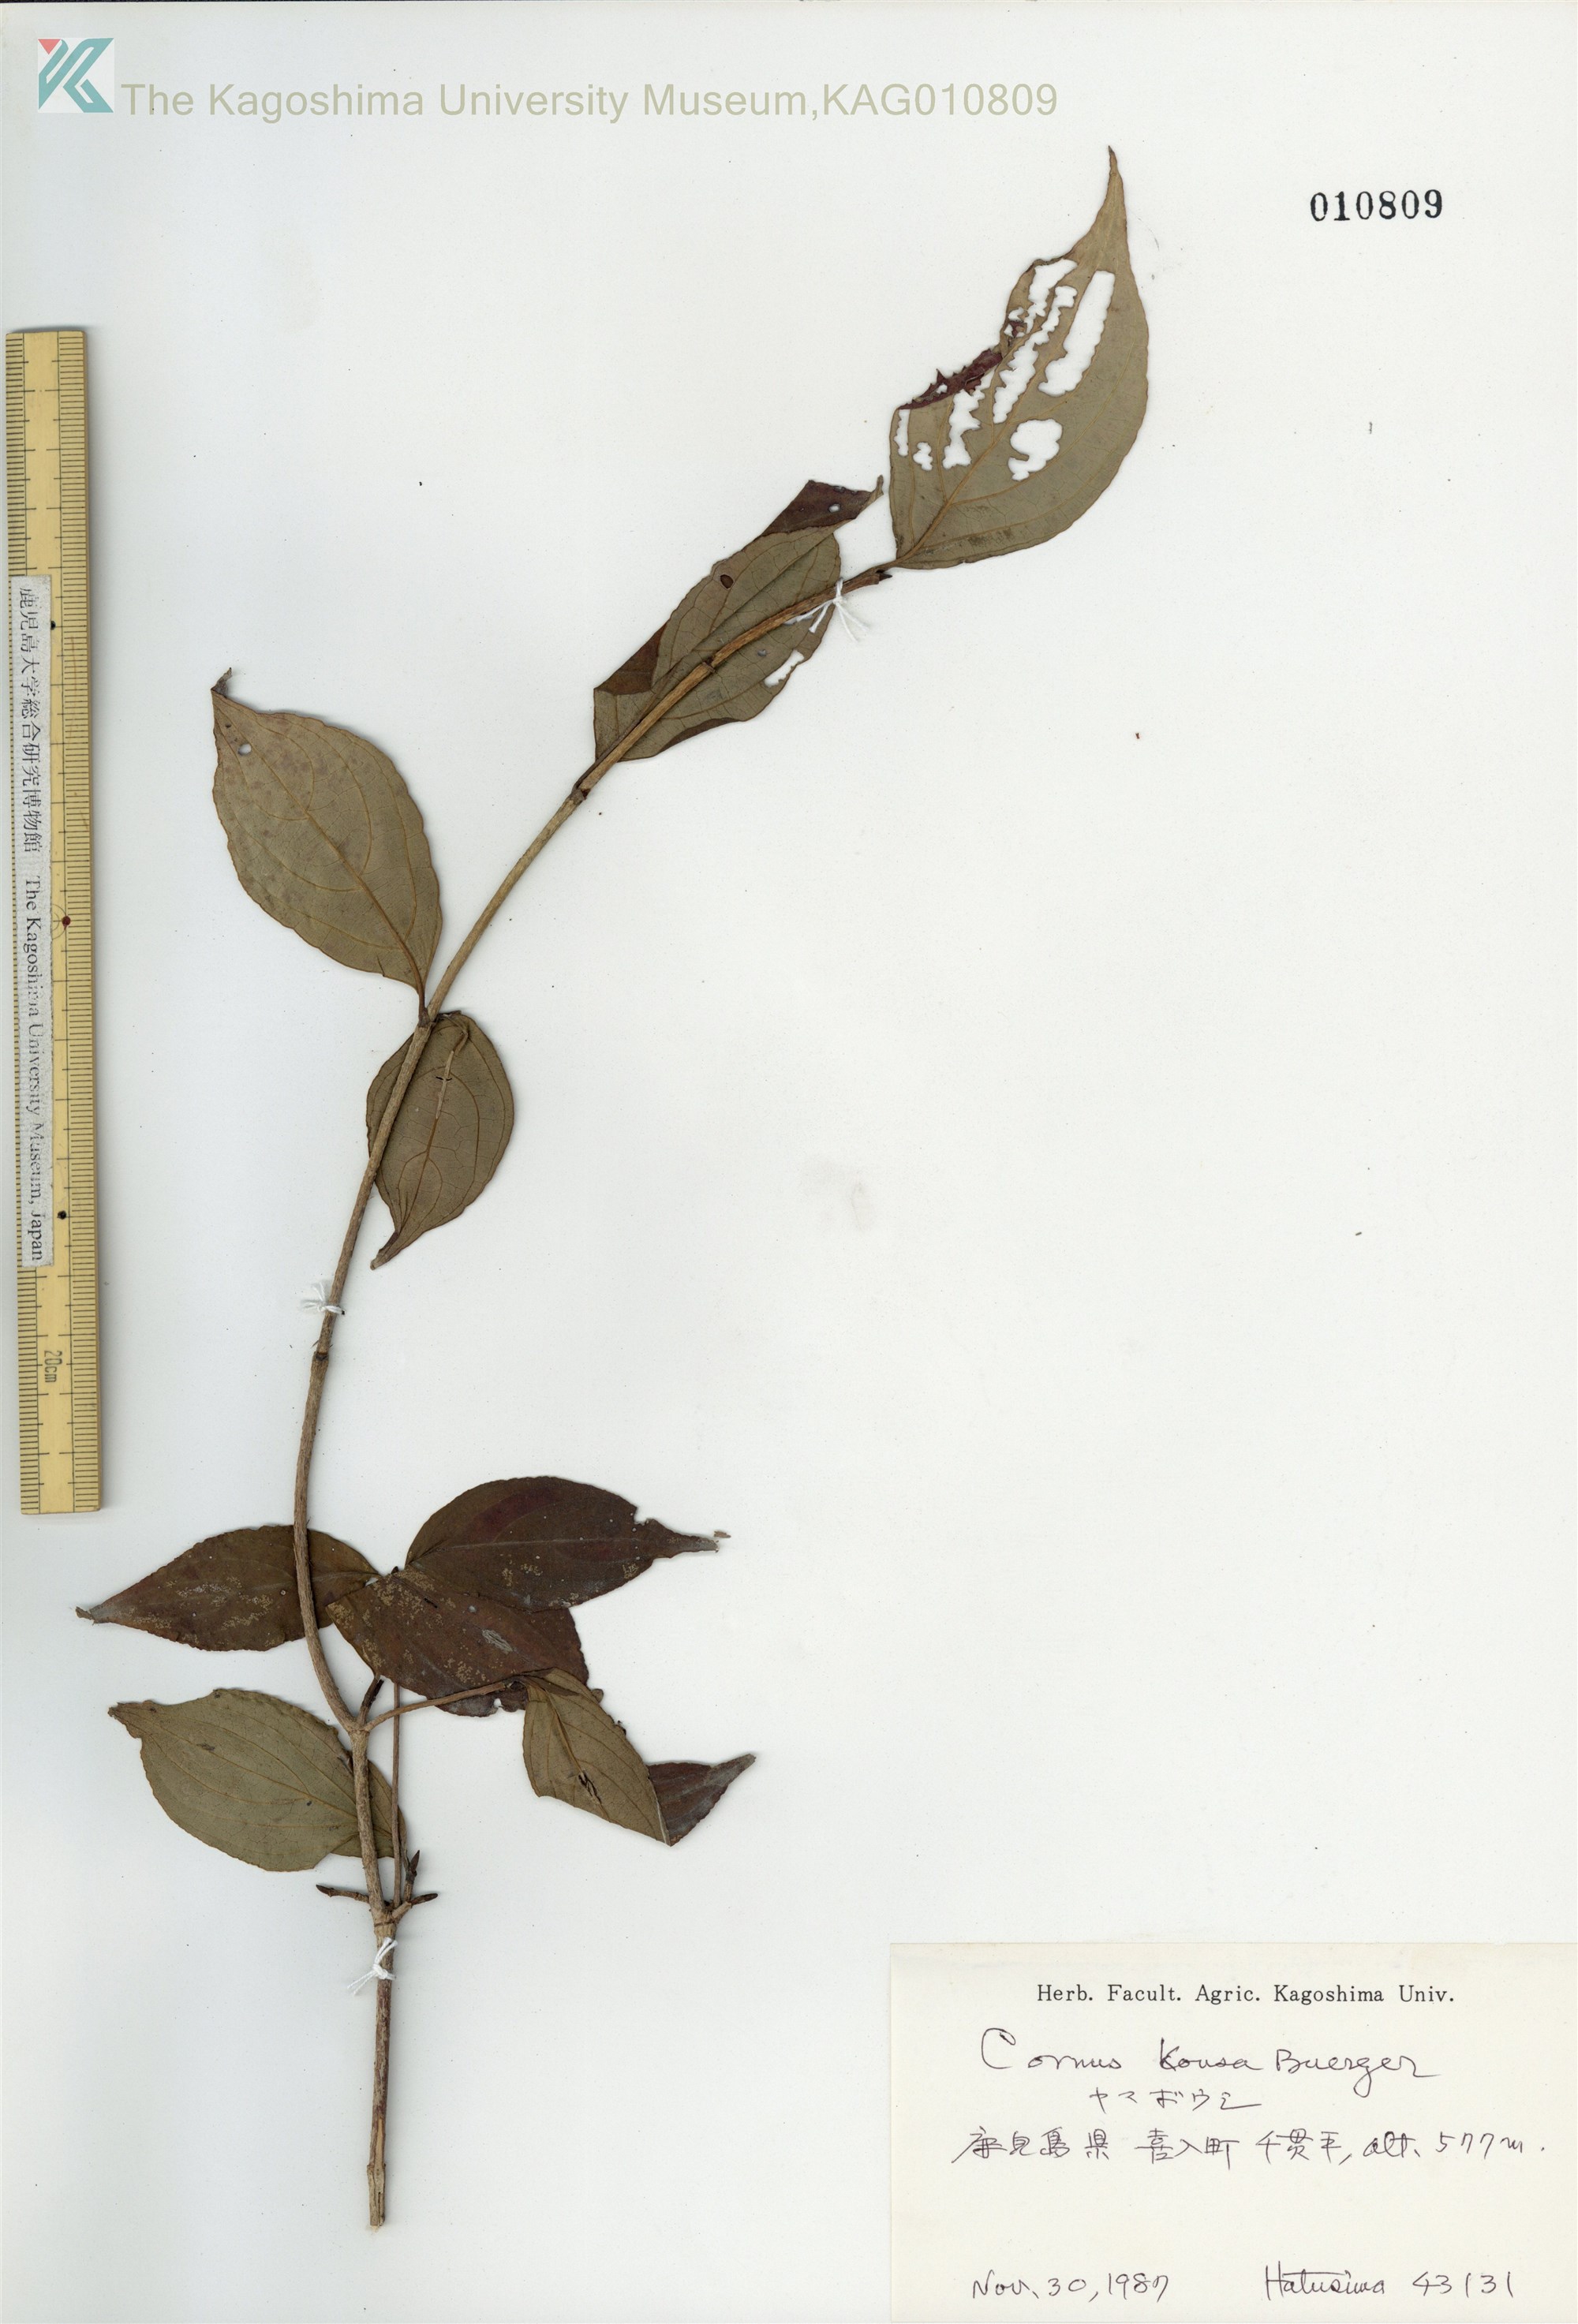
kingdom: Plantae
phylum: Tracheophyta
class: Magnoliopsida
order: Cornales
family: Cornaceae
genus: Cornus
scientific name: Cornus kousa
